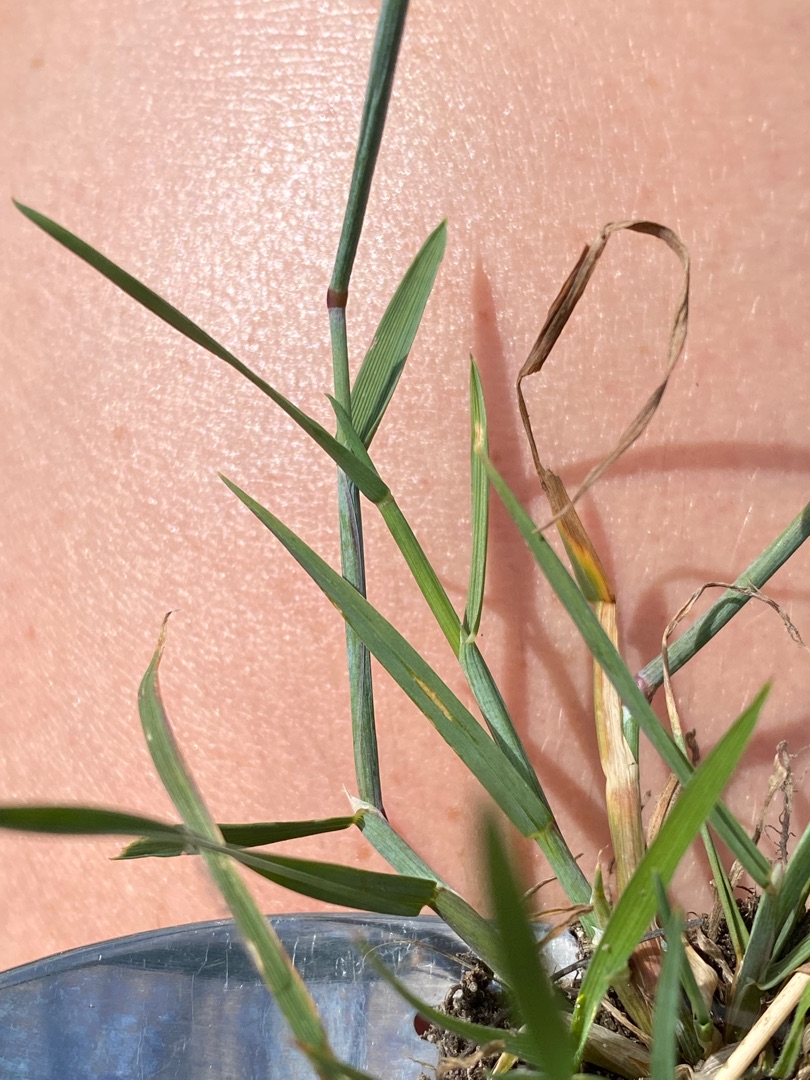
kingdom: Plantae
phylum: Tracheophyta
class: Liliopsida
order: Poales
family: Poaceae
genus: Alopecurus
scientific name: Alopecurus geniculatus
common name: Knæbøjet rævehale
